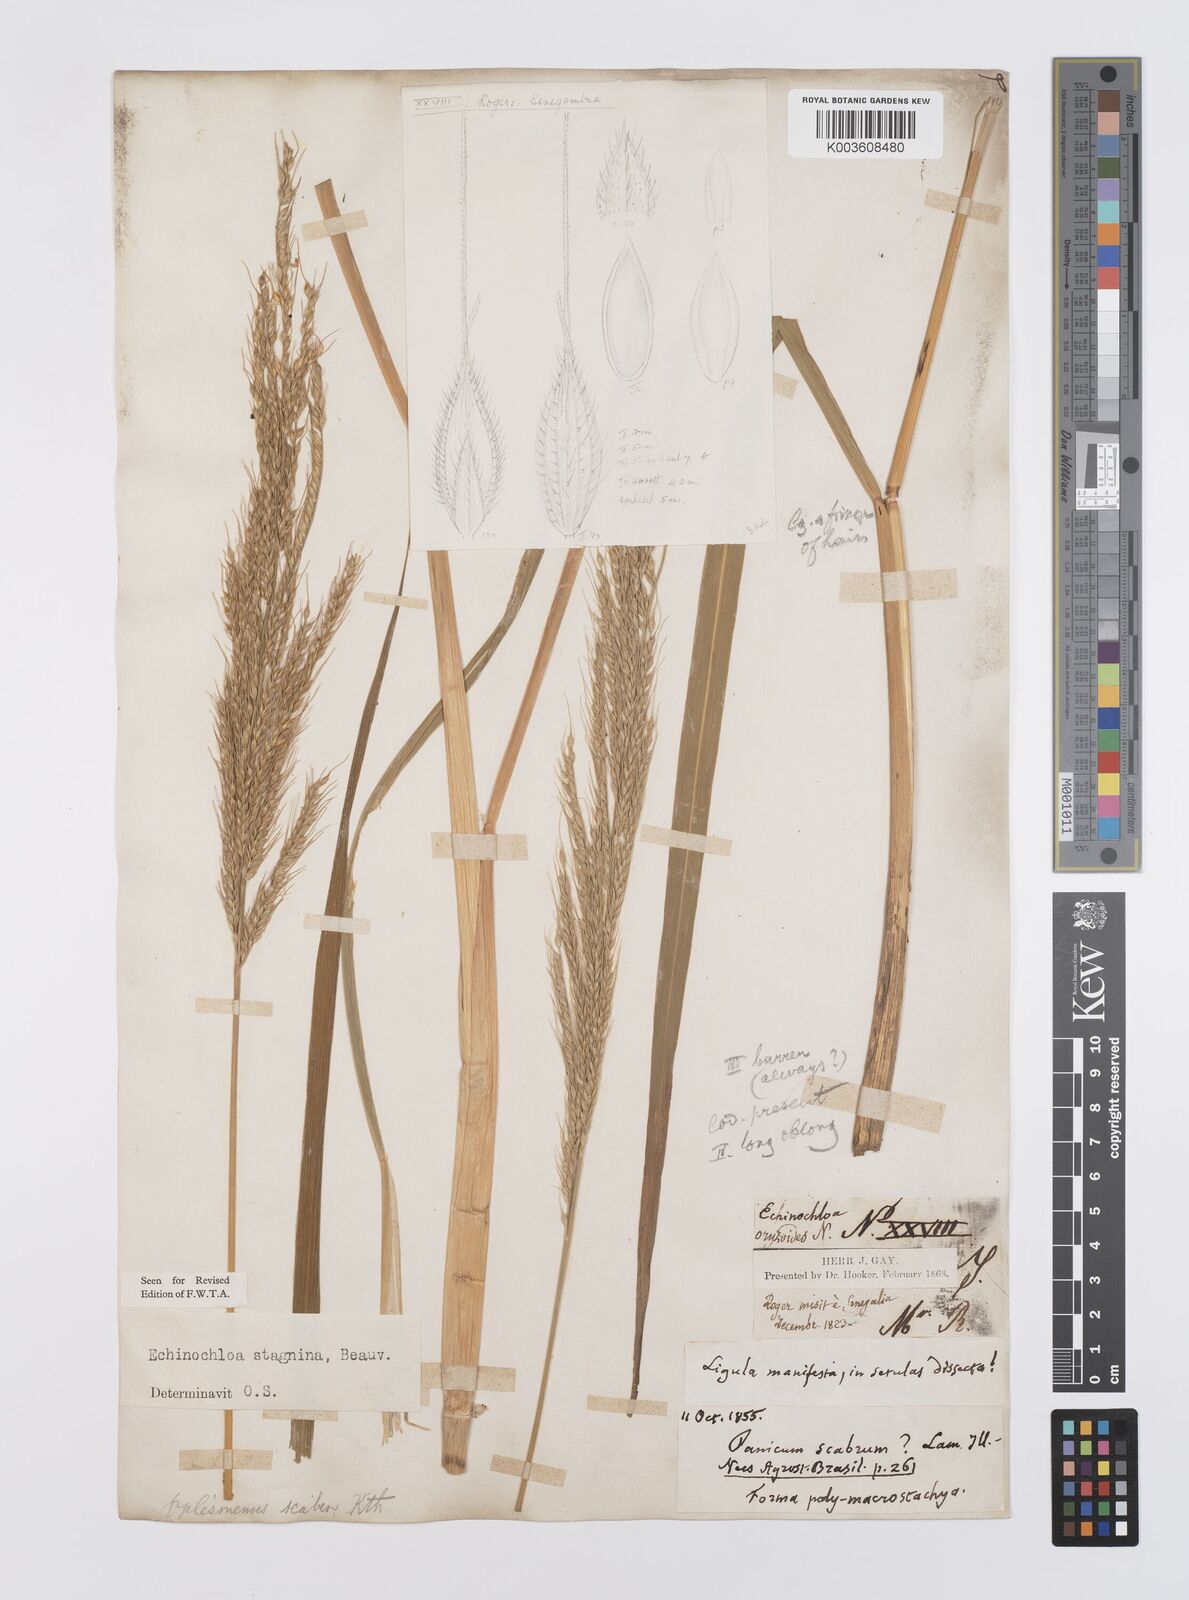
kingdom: Plantae
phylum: Tracheophyta
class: Liliopsida
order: Poales
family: Poaceae
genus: Echinochloa
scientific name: Echinochloa stagnina
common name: Burgu grass
